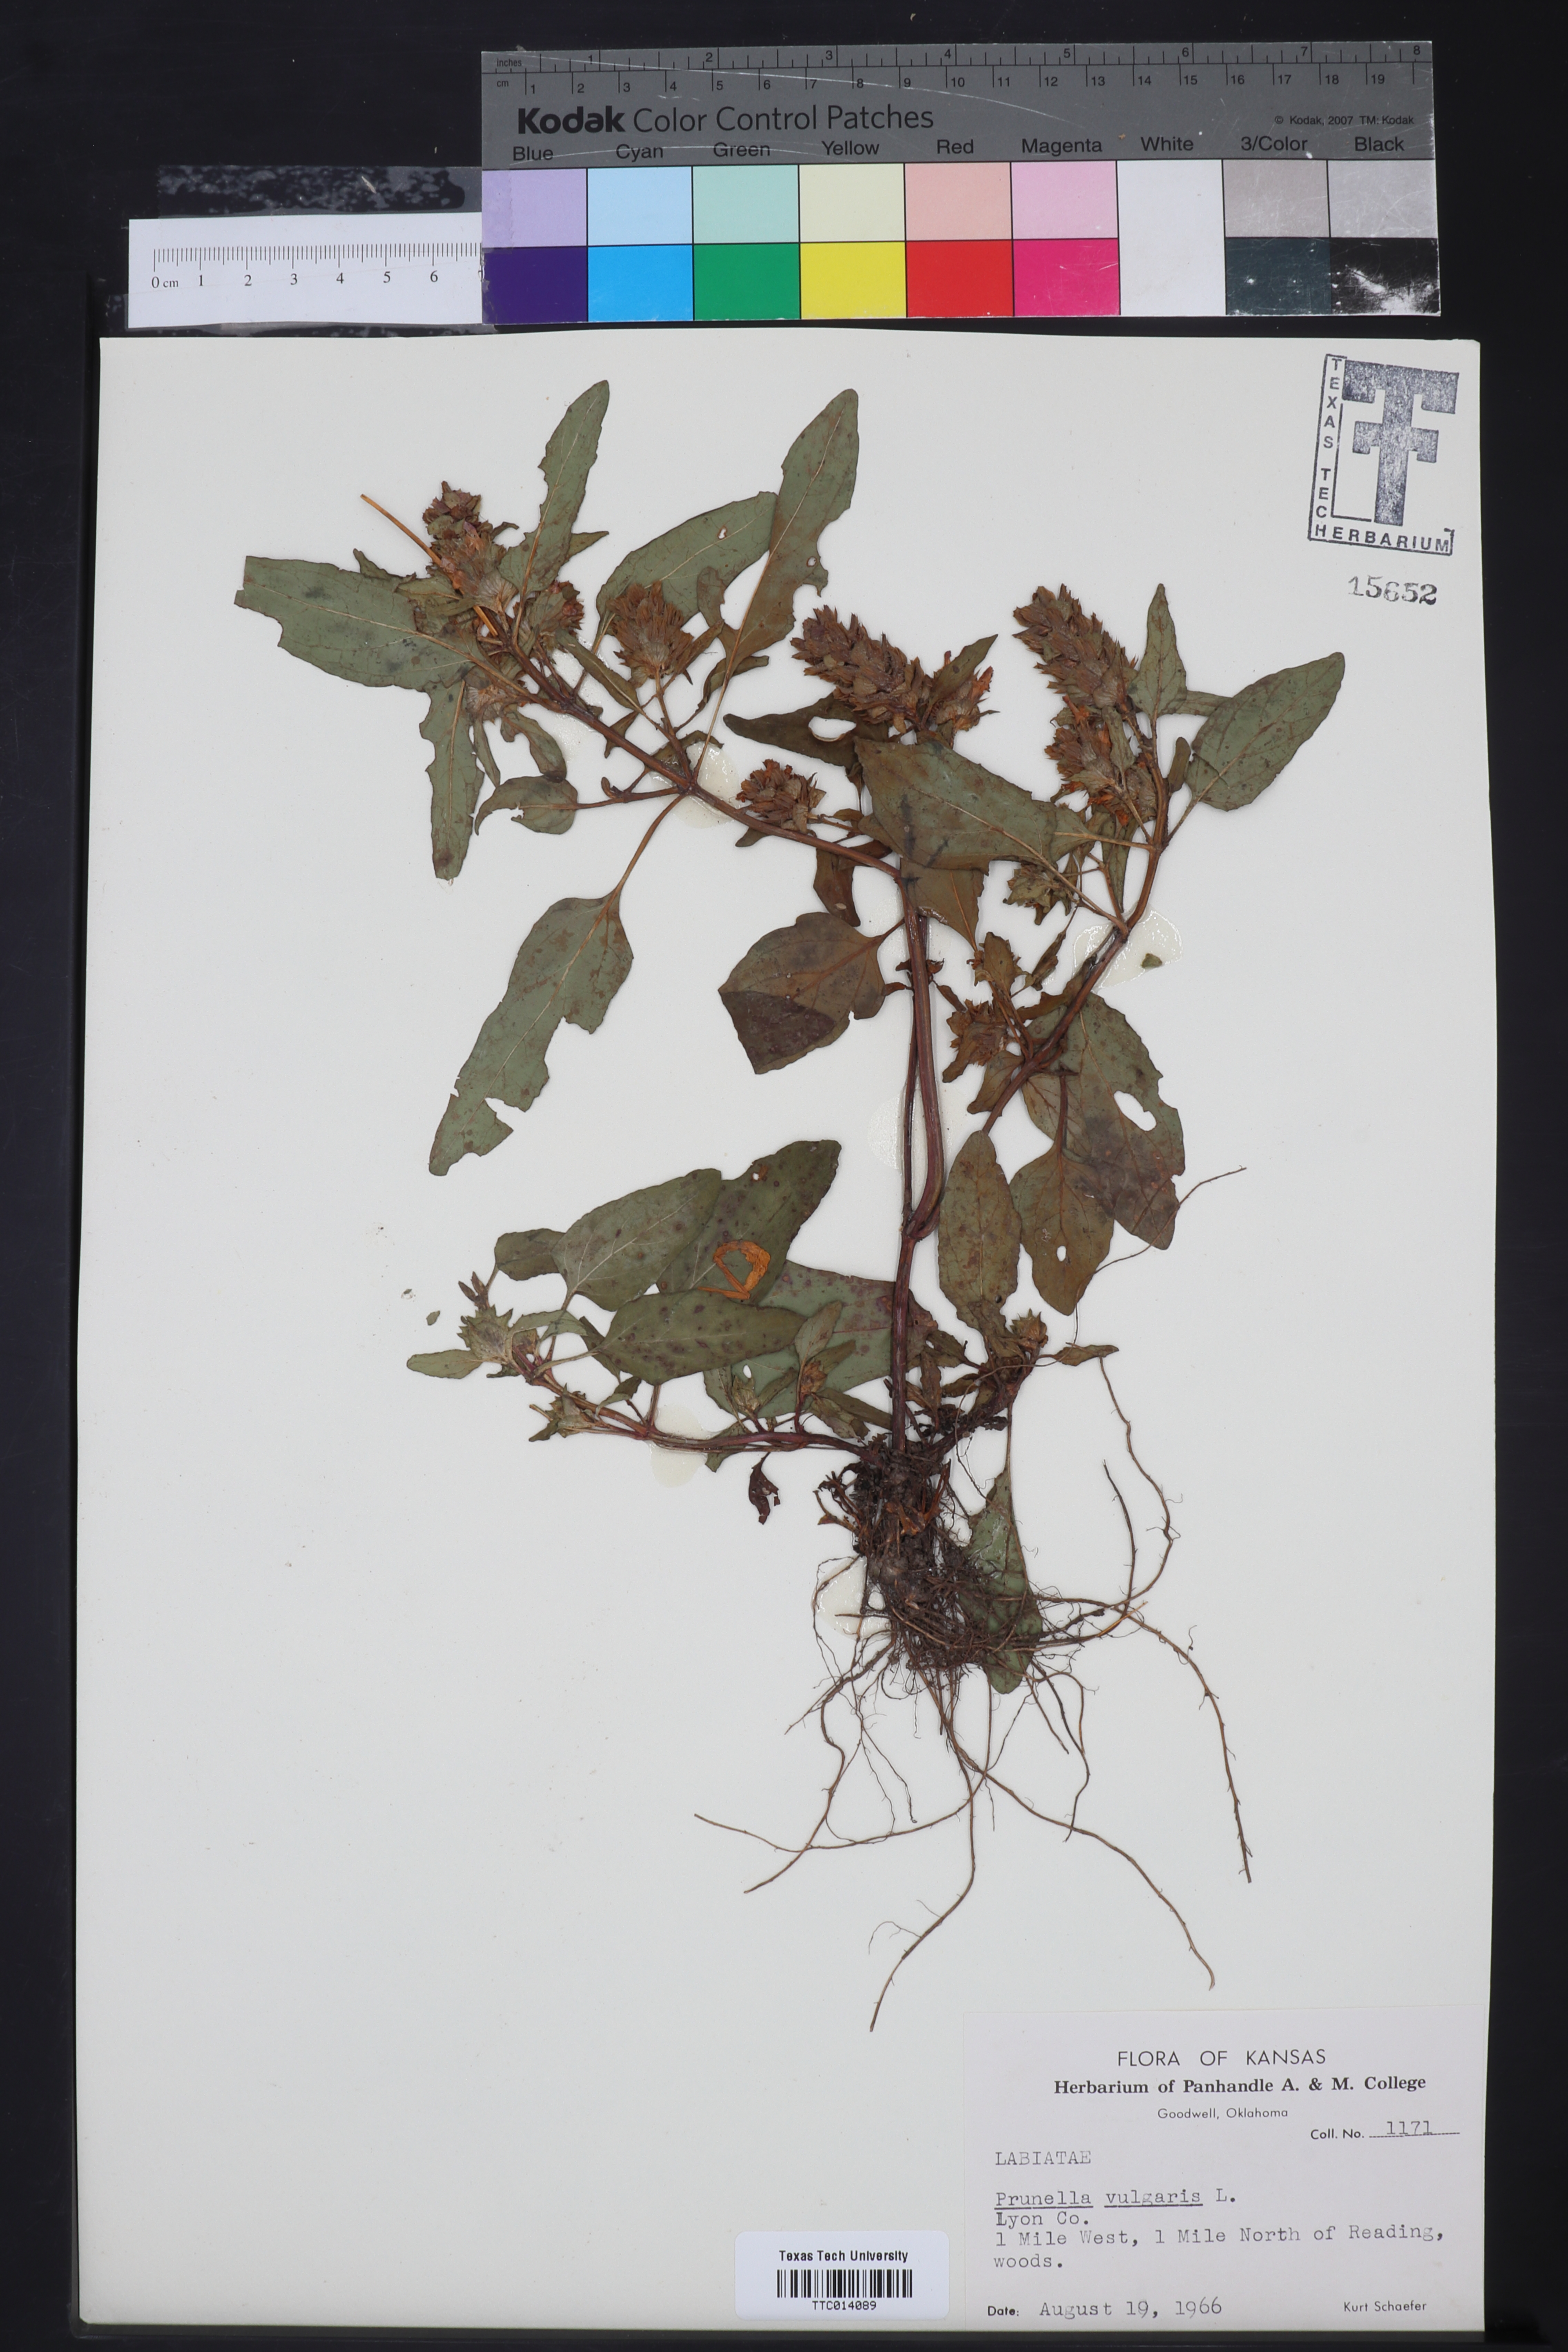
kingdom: Plantae
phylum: Tracheophyta
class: Magnoliopsida
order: Lamiales
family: Lamiaceae
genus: Prunella
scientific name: Prunella vulgaris
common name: Heal-all
